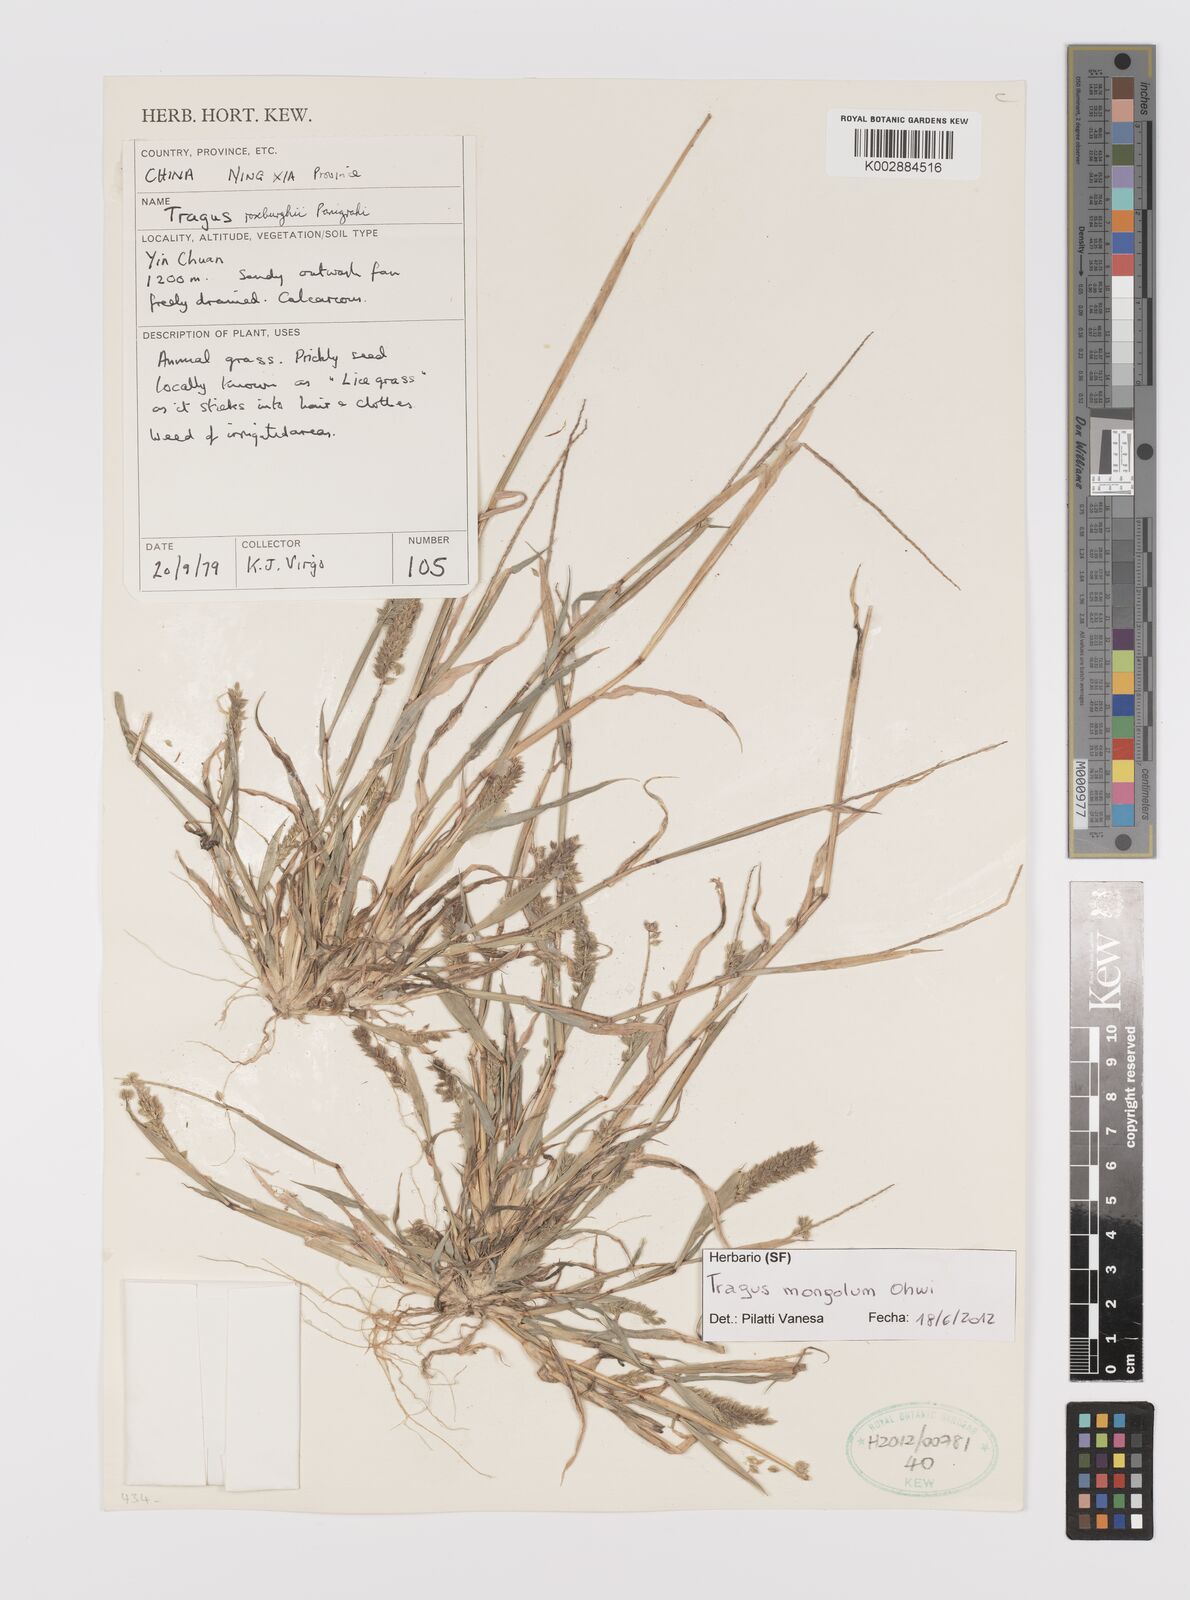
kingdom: Plantae
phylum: Tracheophyta
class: Liliopsida
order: Poales
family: Poaceae
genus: Tragus
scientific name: Tragus mongolorum
